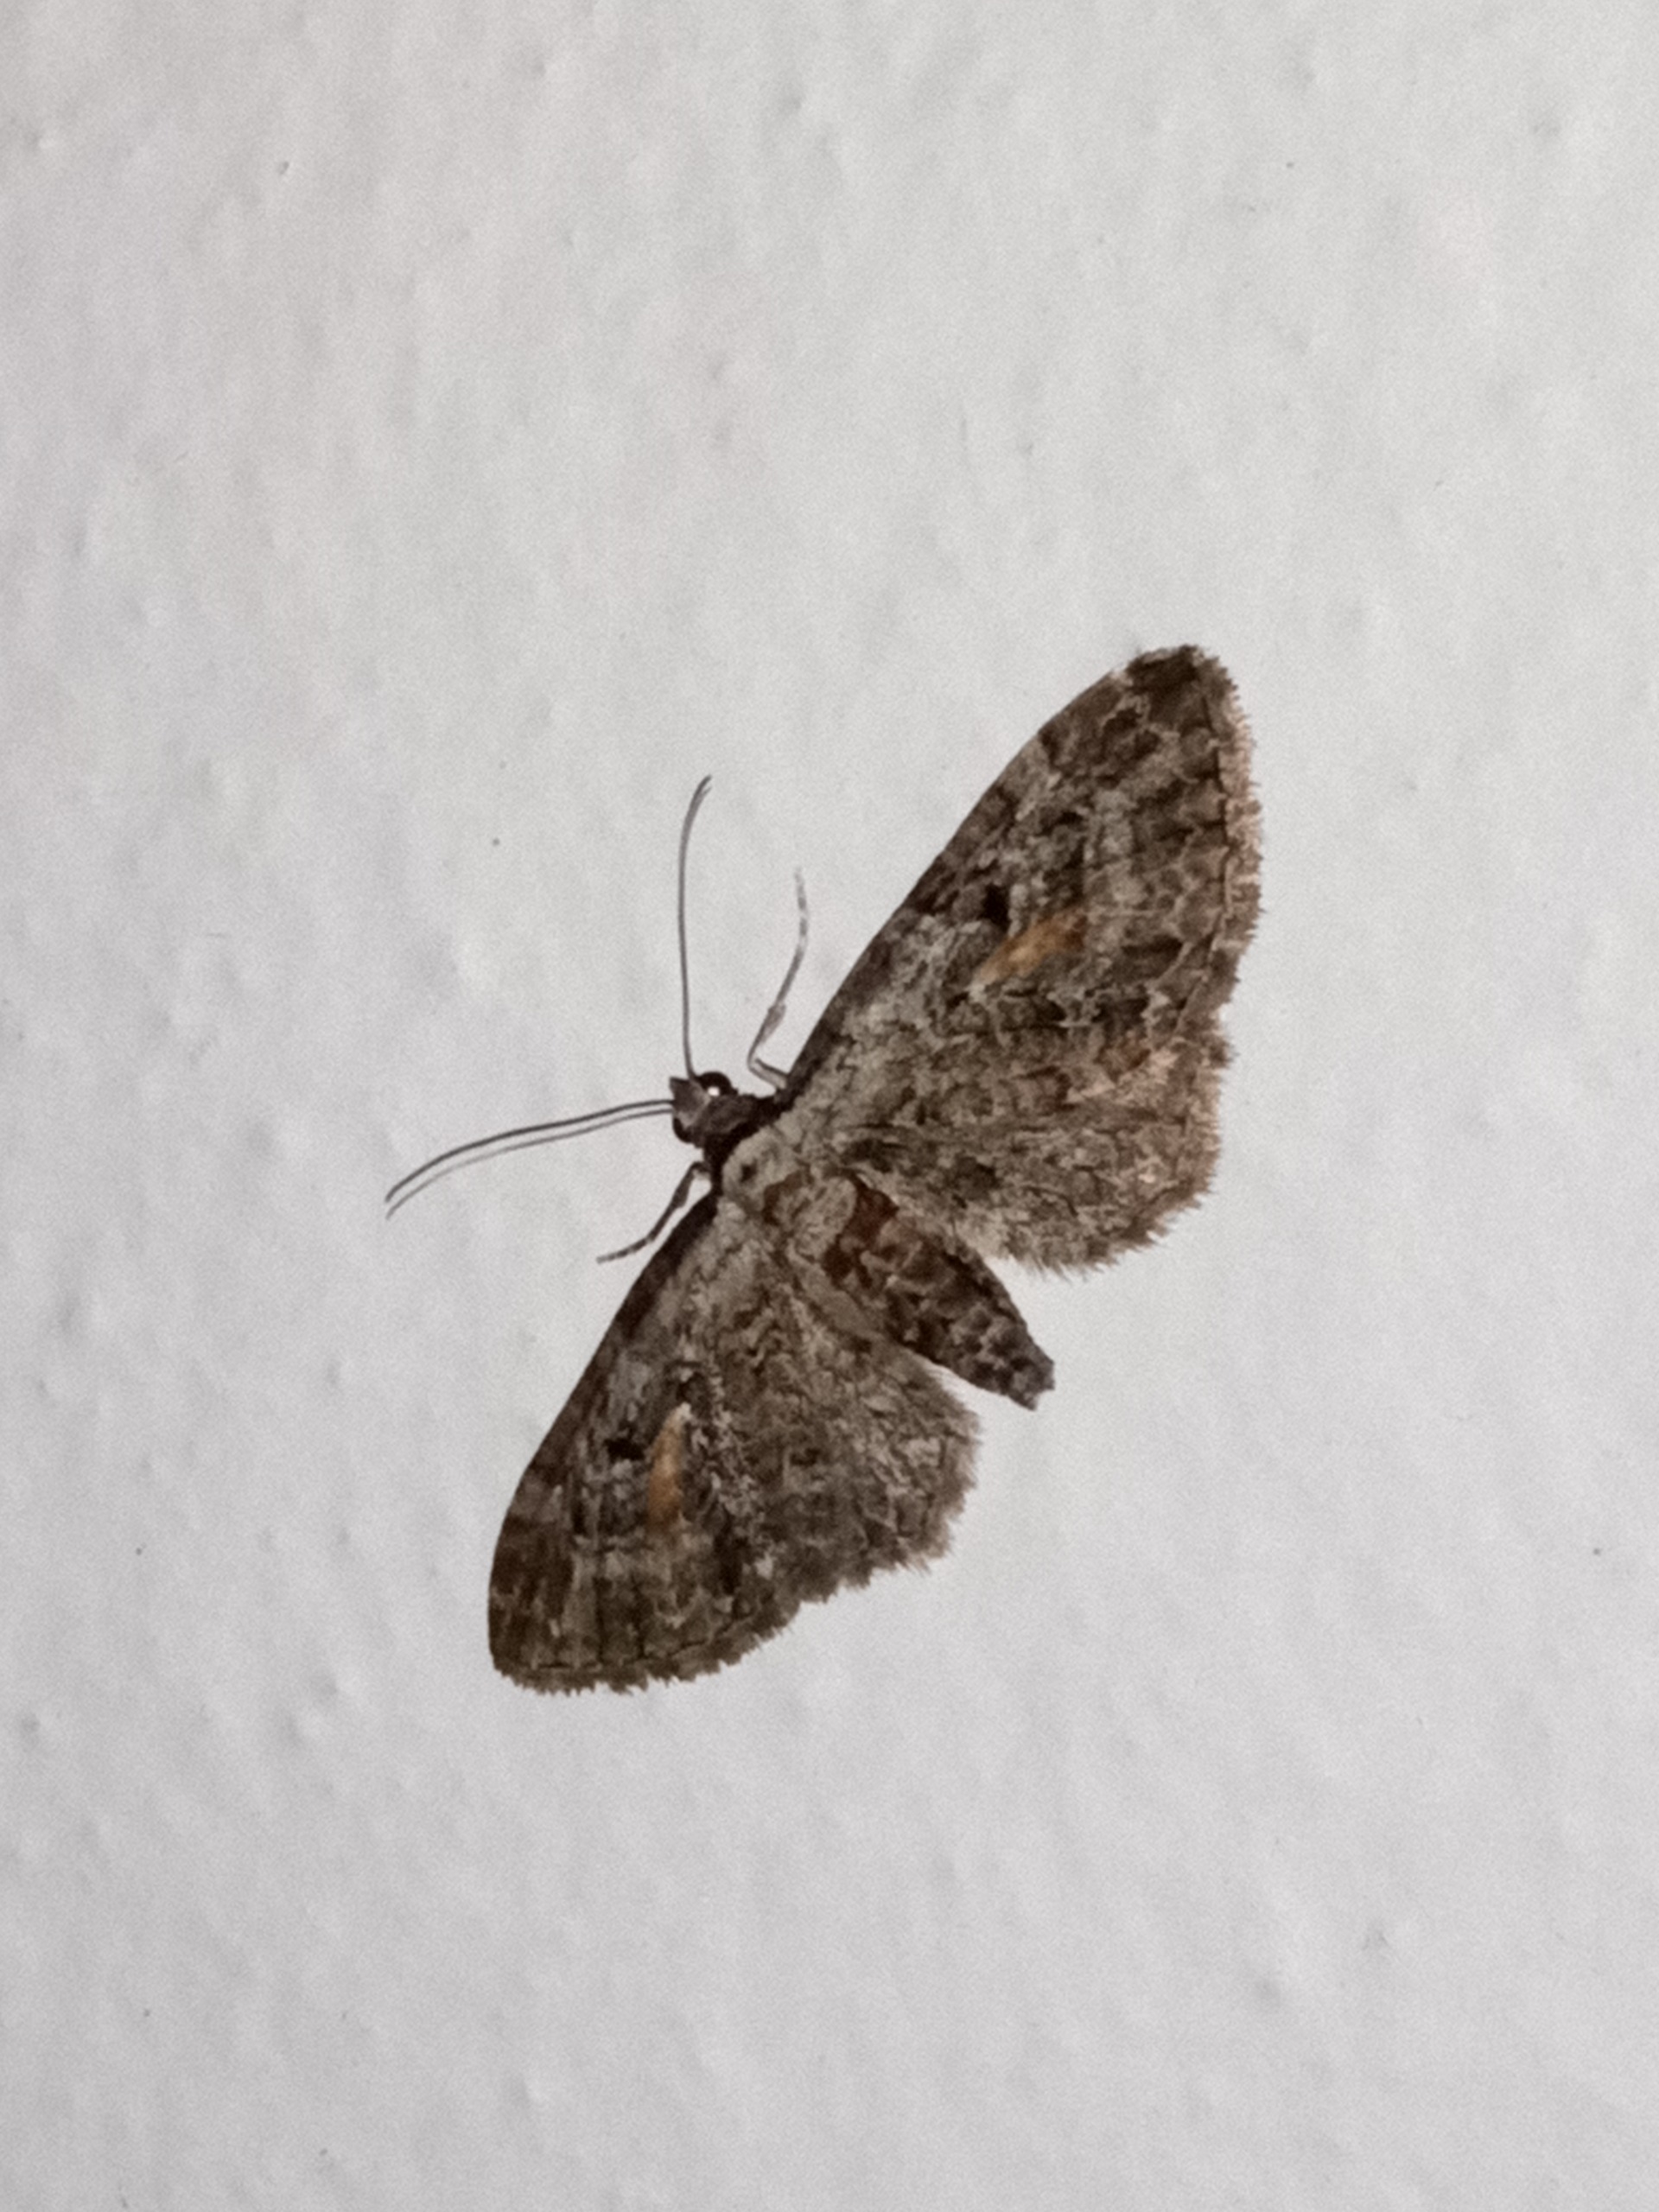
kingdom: Animalia
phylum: Arthropoda
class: Insecta
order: Lepidoptera
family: Geometridae
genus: Eupithecia
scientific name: Eupithecia icterata
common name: Røllike-dværgmåler
